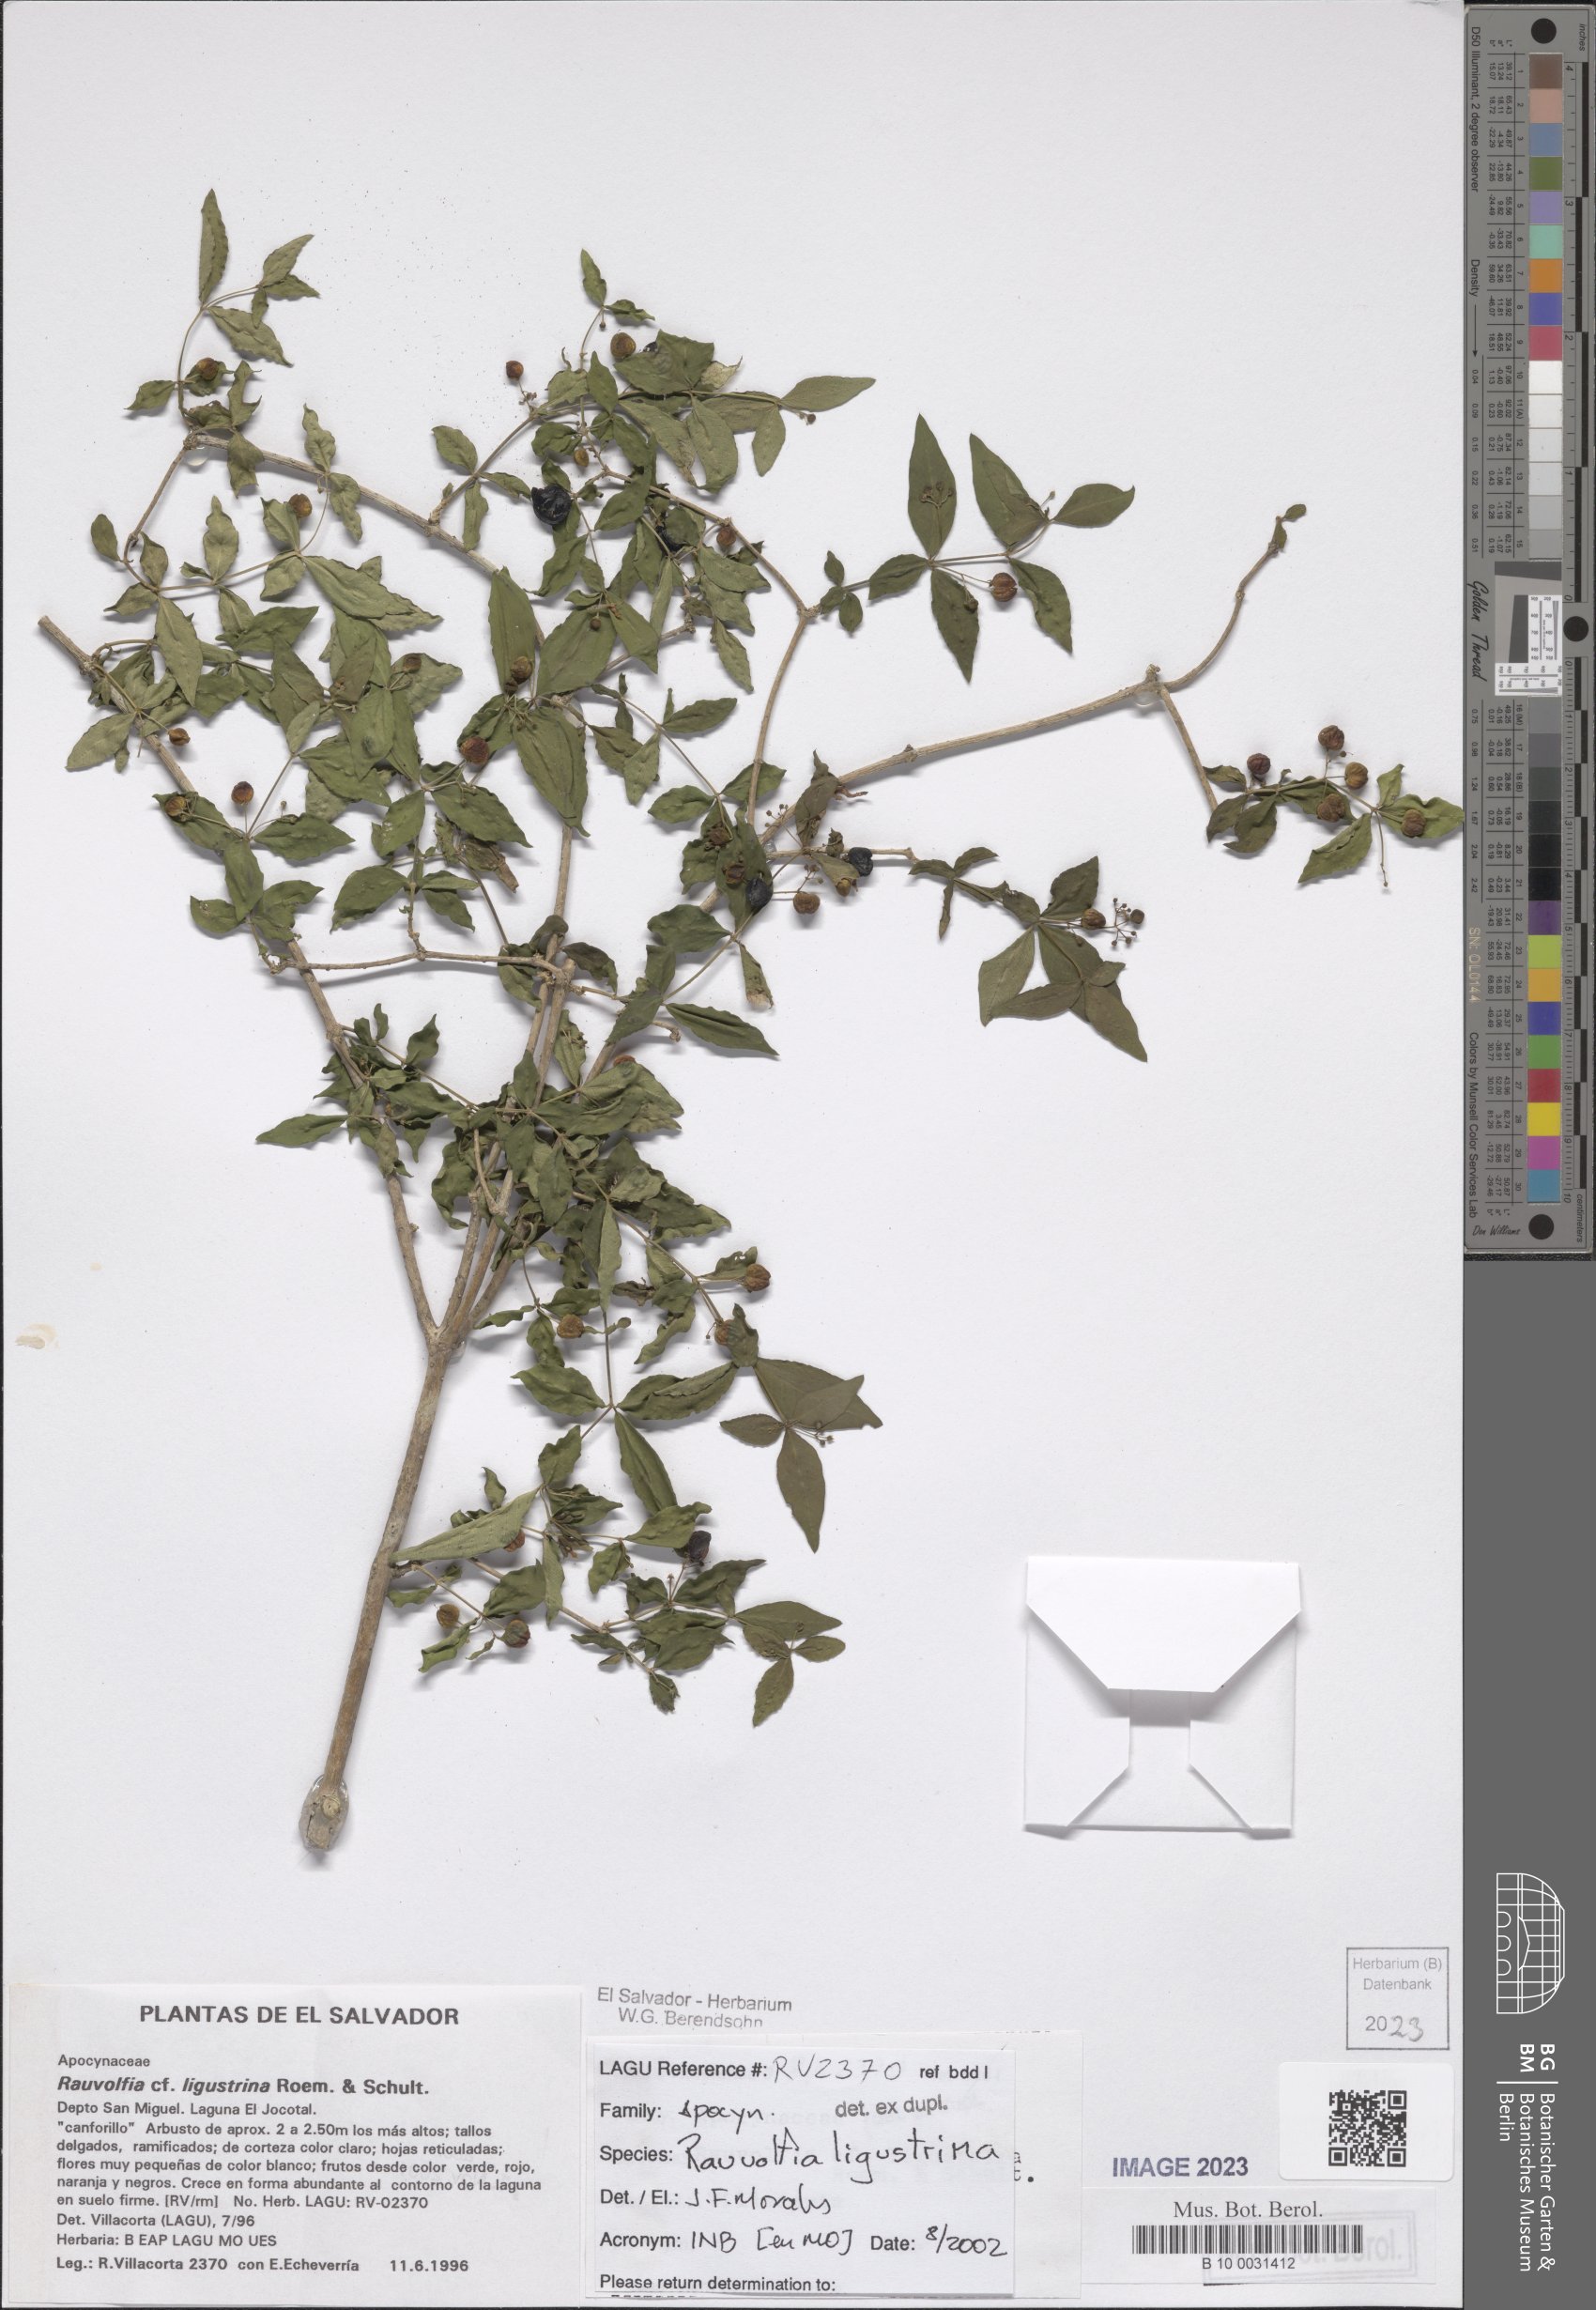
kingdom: Plantae
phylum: Tracheophyta
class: Magnoliopsida
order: Gentianales
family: Apocynaceae
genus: Rauvolfia
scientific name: Rauvolfia ligustrina
